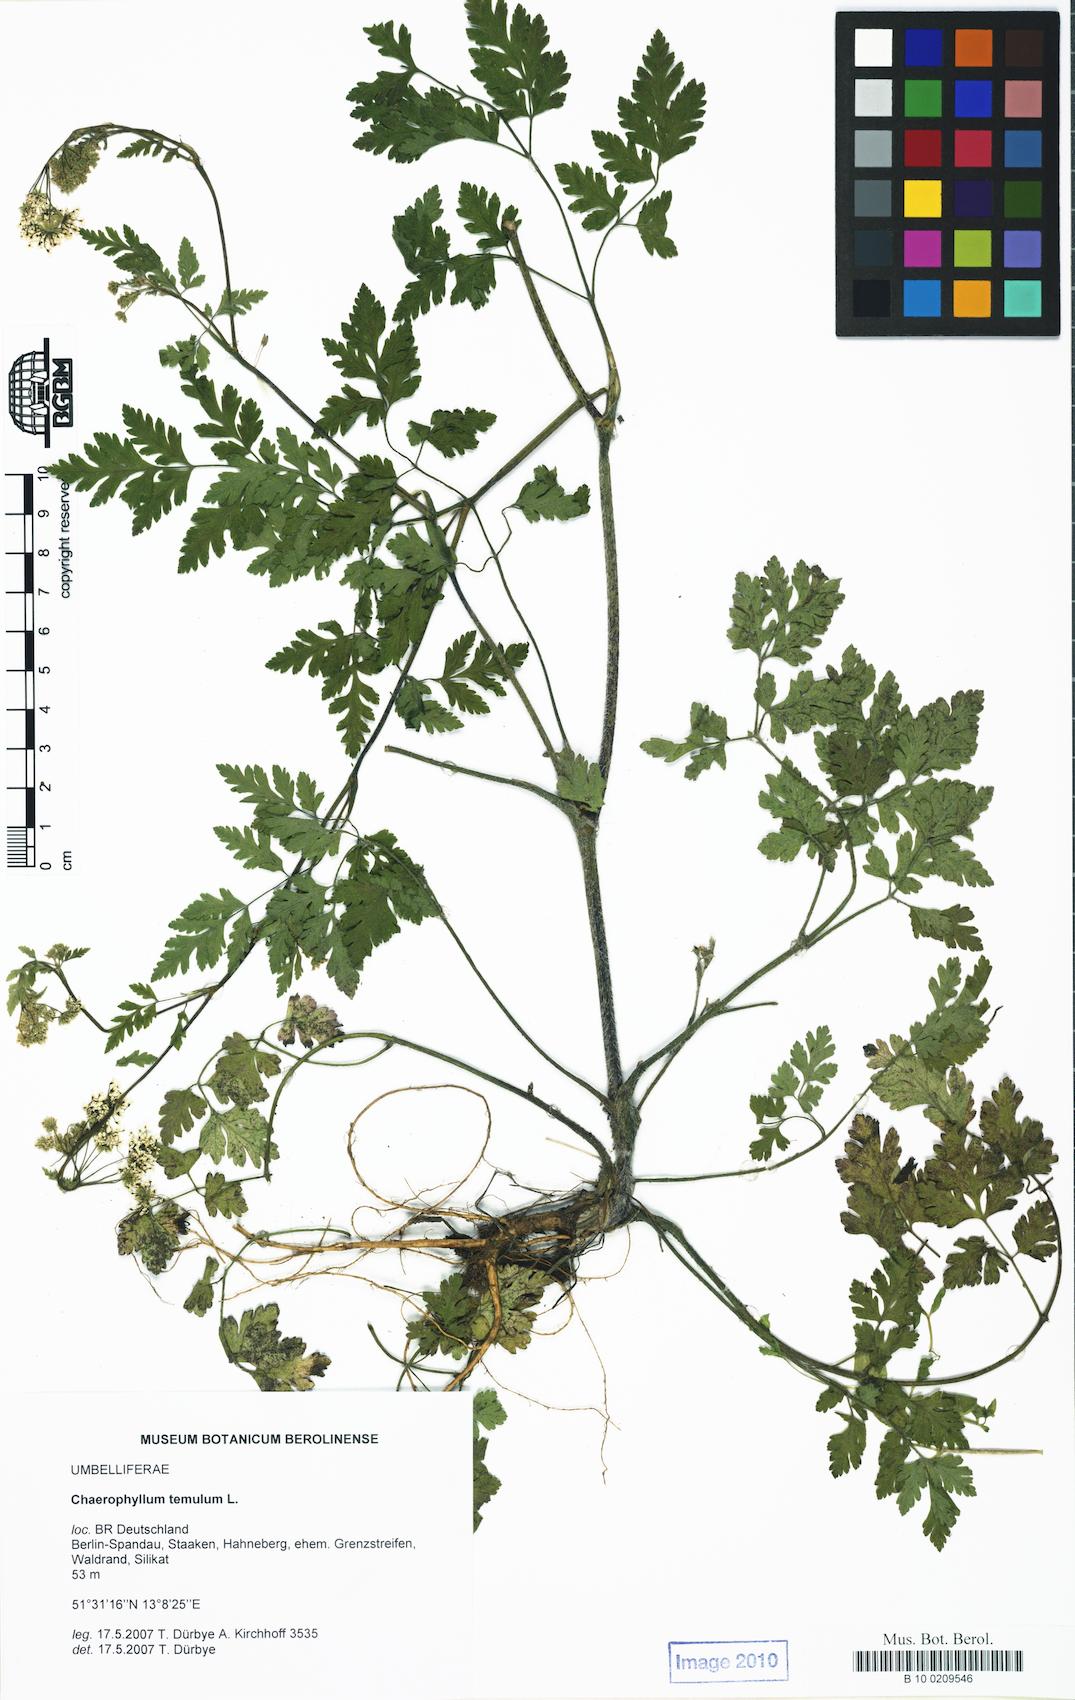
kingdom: Plantae
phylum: Tracheophyta
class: Magnoliopsida
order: Apiales
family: Apiaceae
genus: Chaerophyllum
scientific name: Chaerophyllum temulum
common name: Rough chervil
